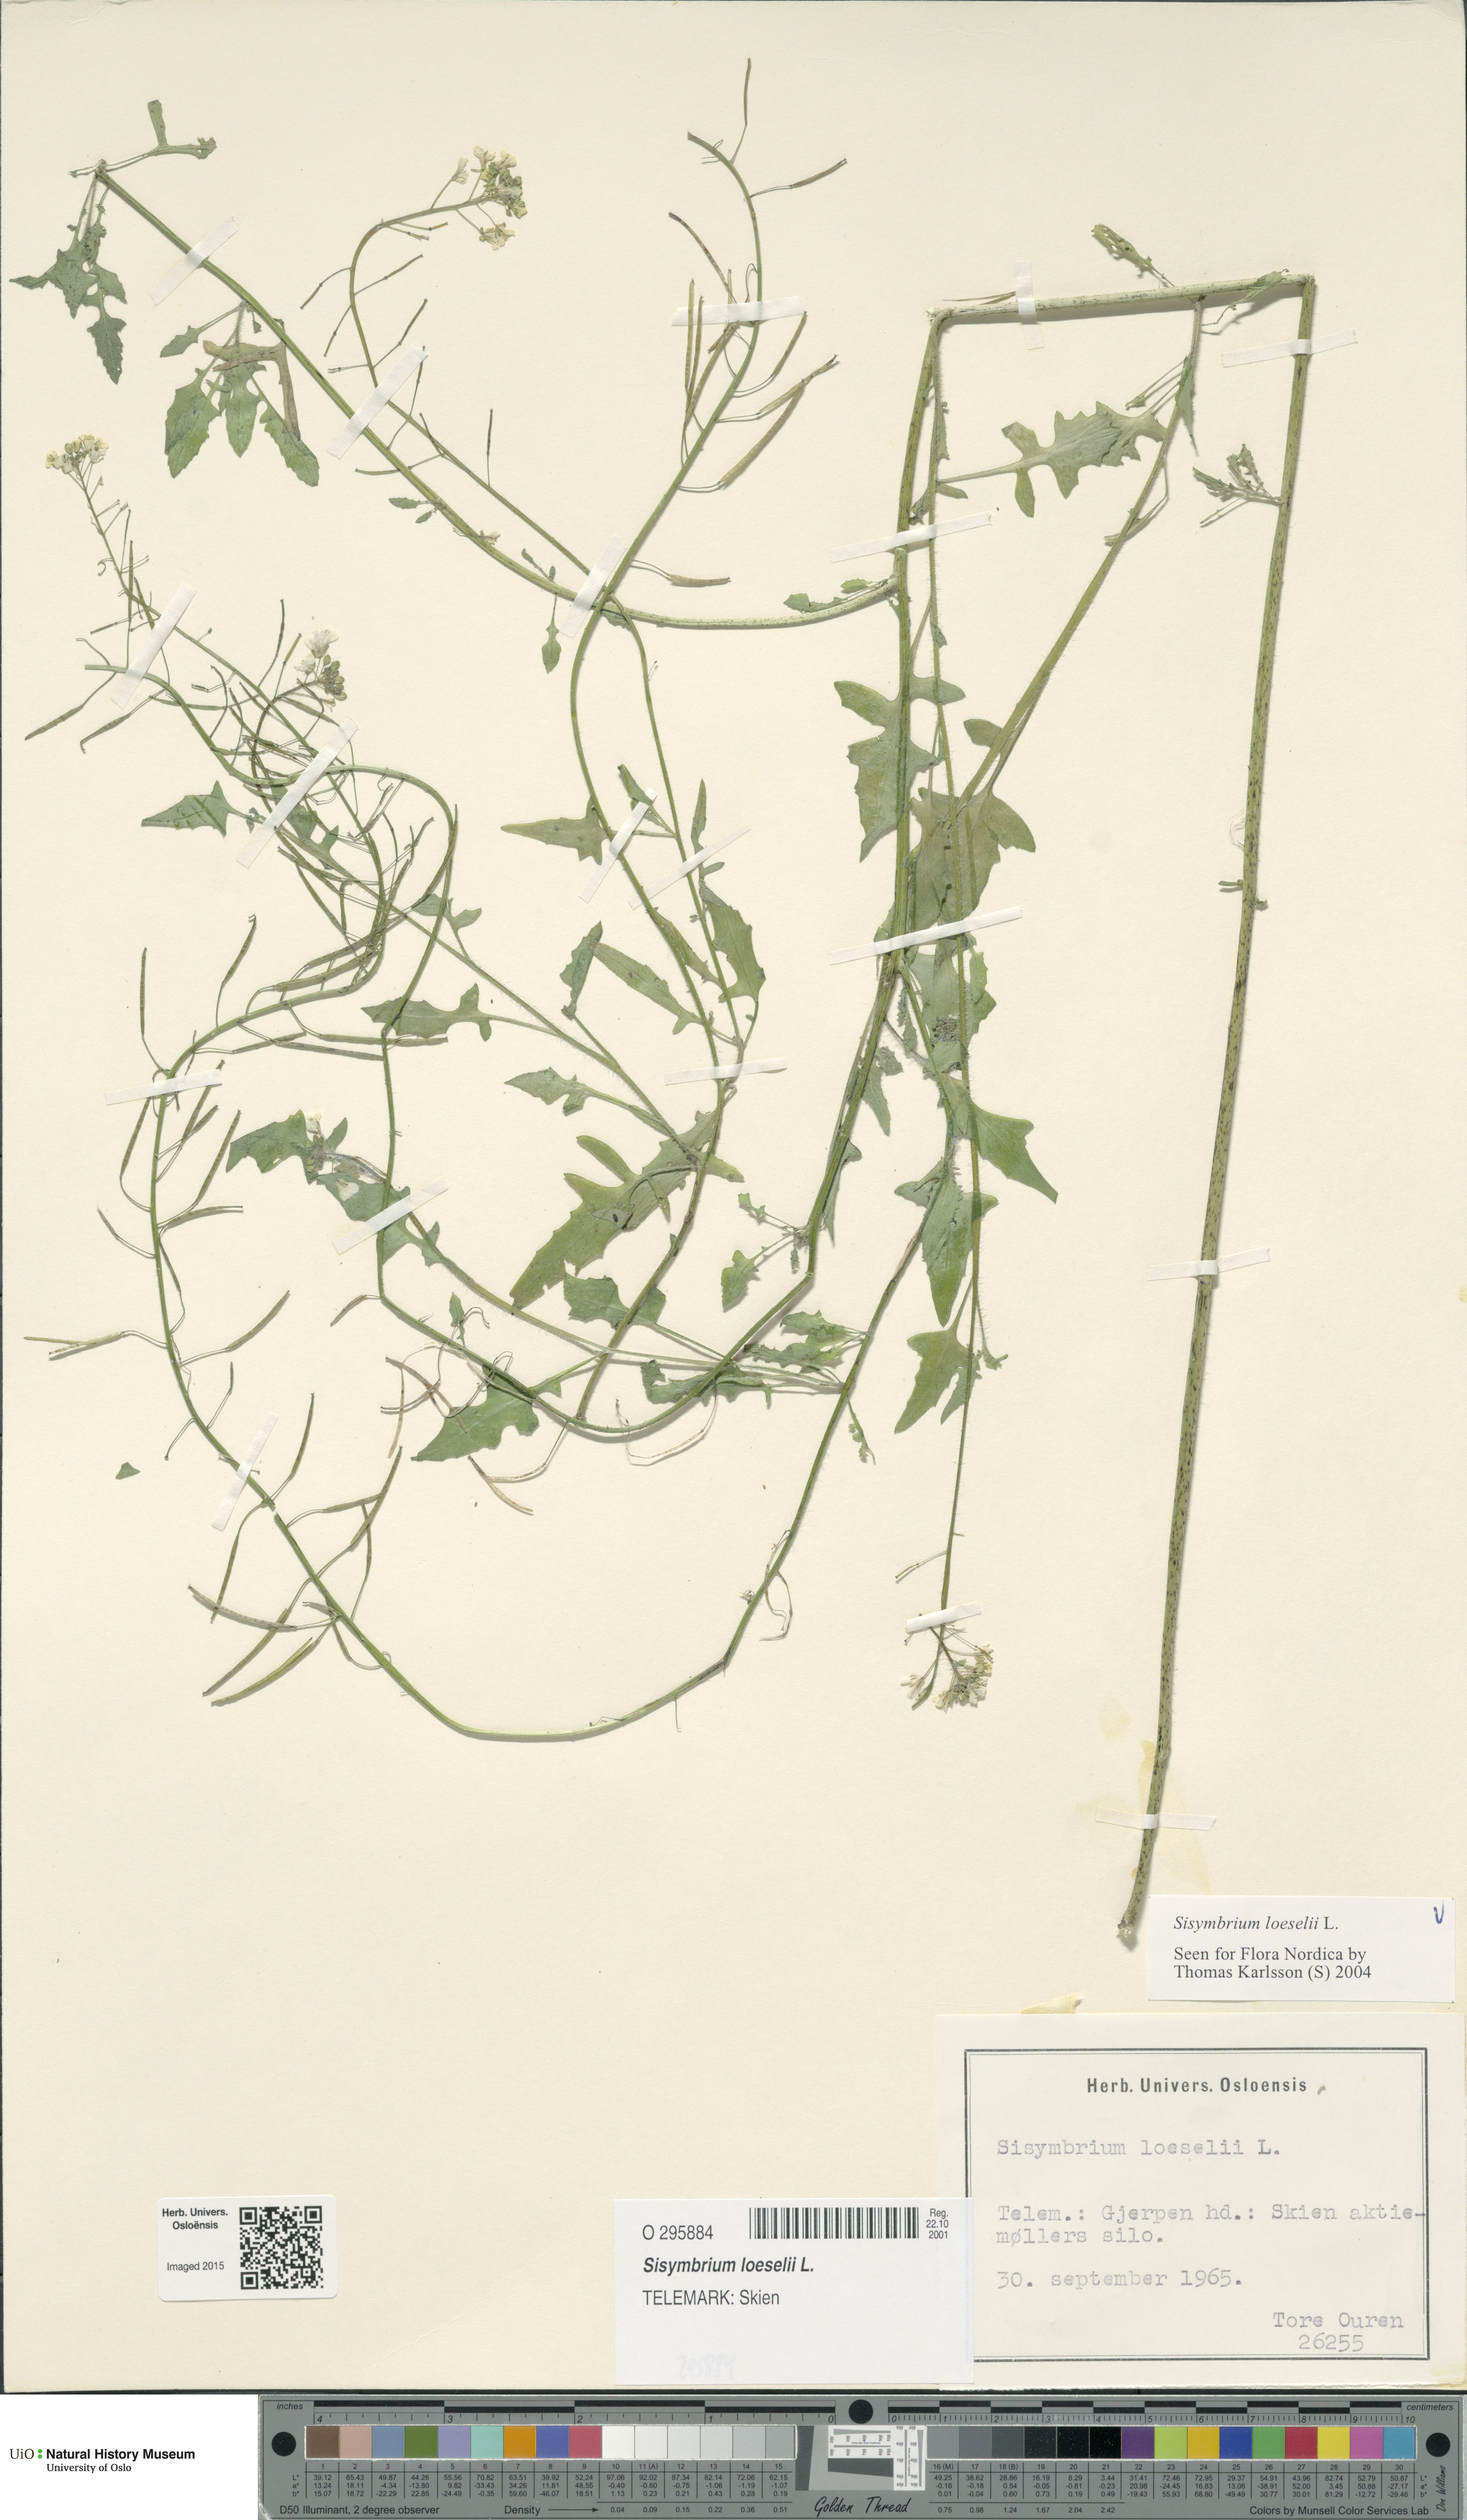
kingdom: Plantae
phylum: Tracheophyta
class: Magnoliopsida
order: Brassicales
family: Brassicaceae
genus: Sisymbrium
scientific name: Sisymbrium loeselii
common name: False london-rocket
